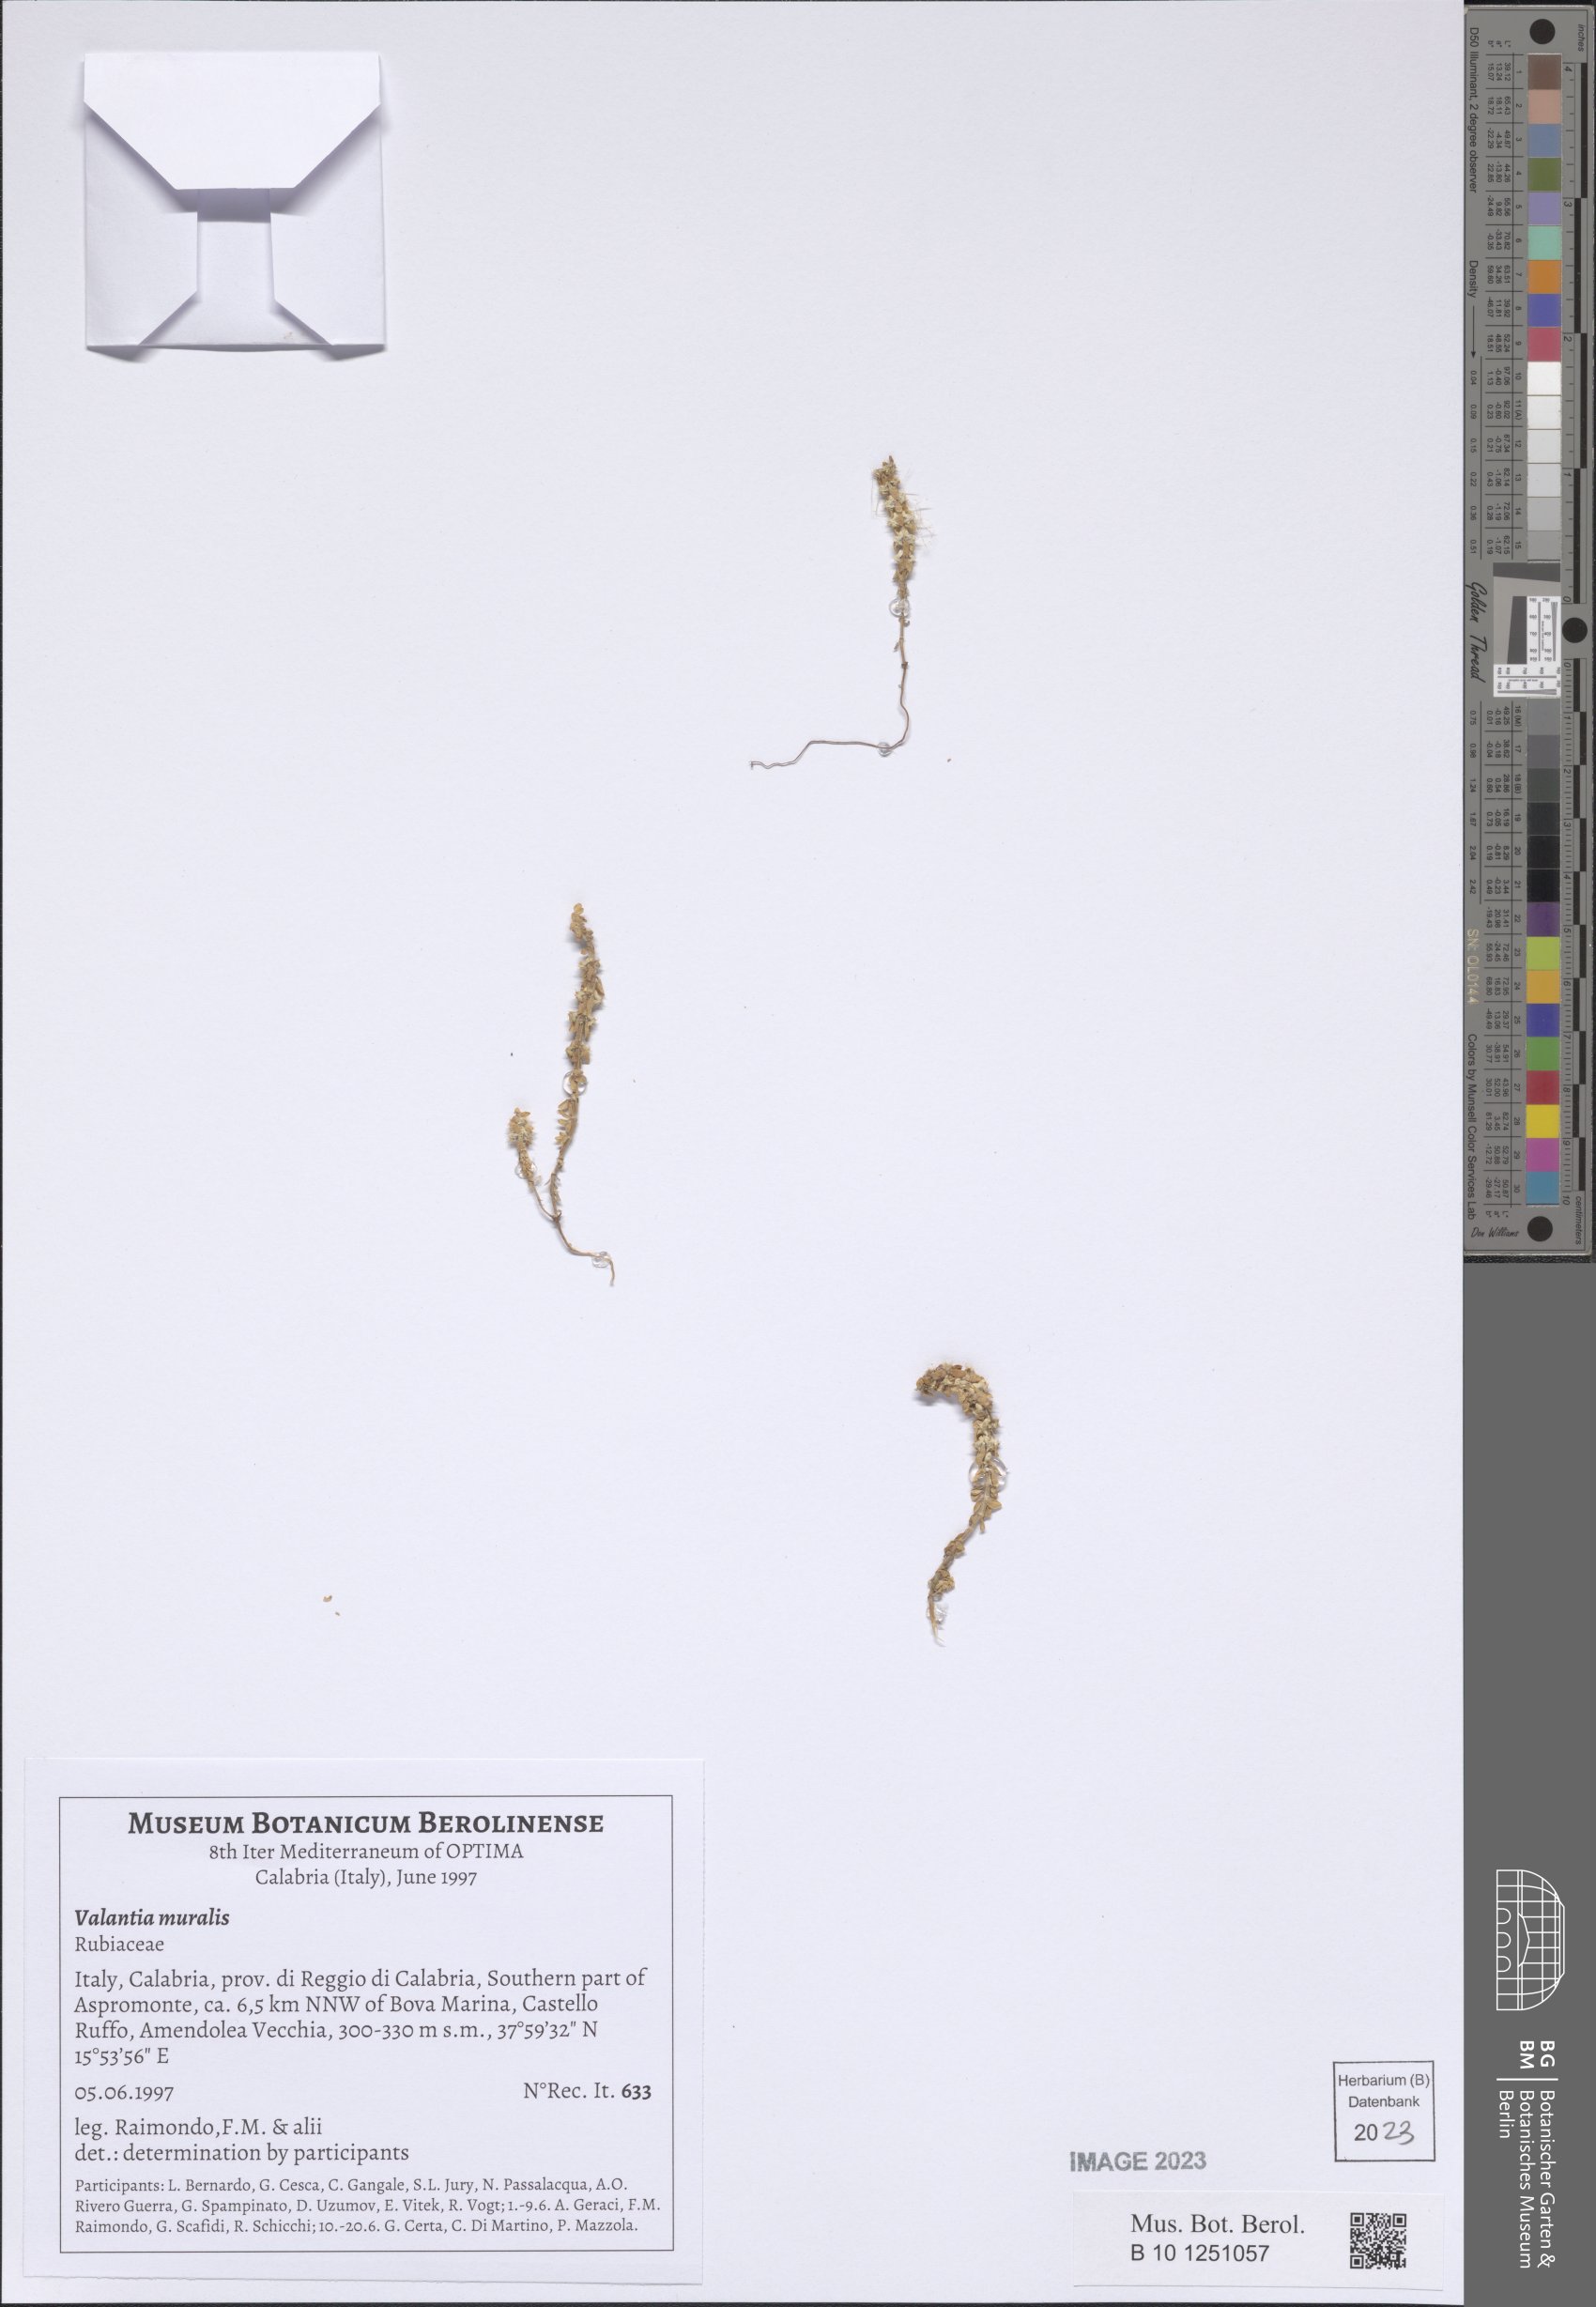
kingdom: Plantae
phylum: Tracheophyta
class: Magnoliopsida
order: Gentianales
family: Rubiaceae
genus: Valantia
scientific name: Valantia muralis
